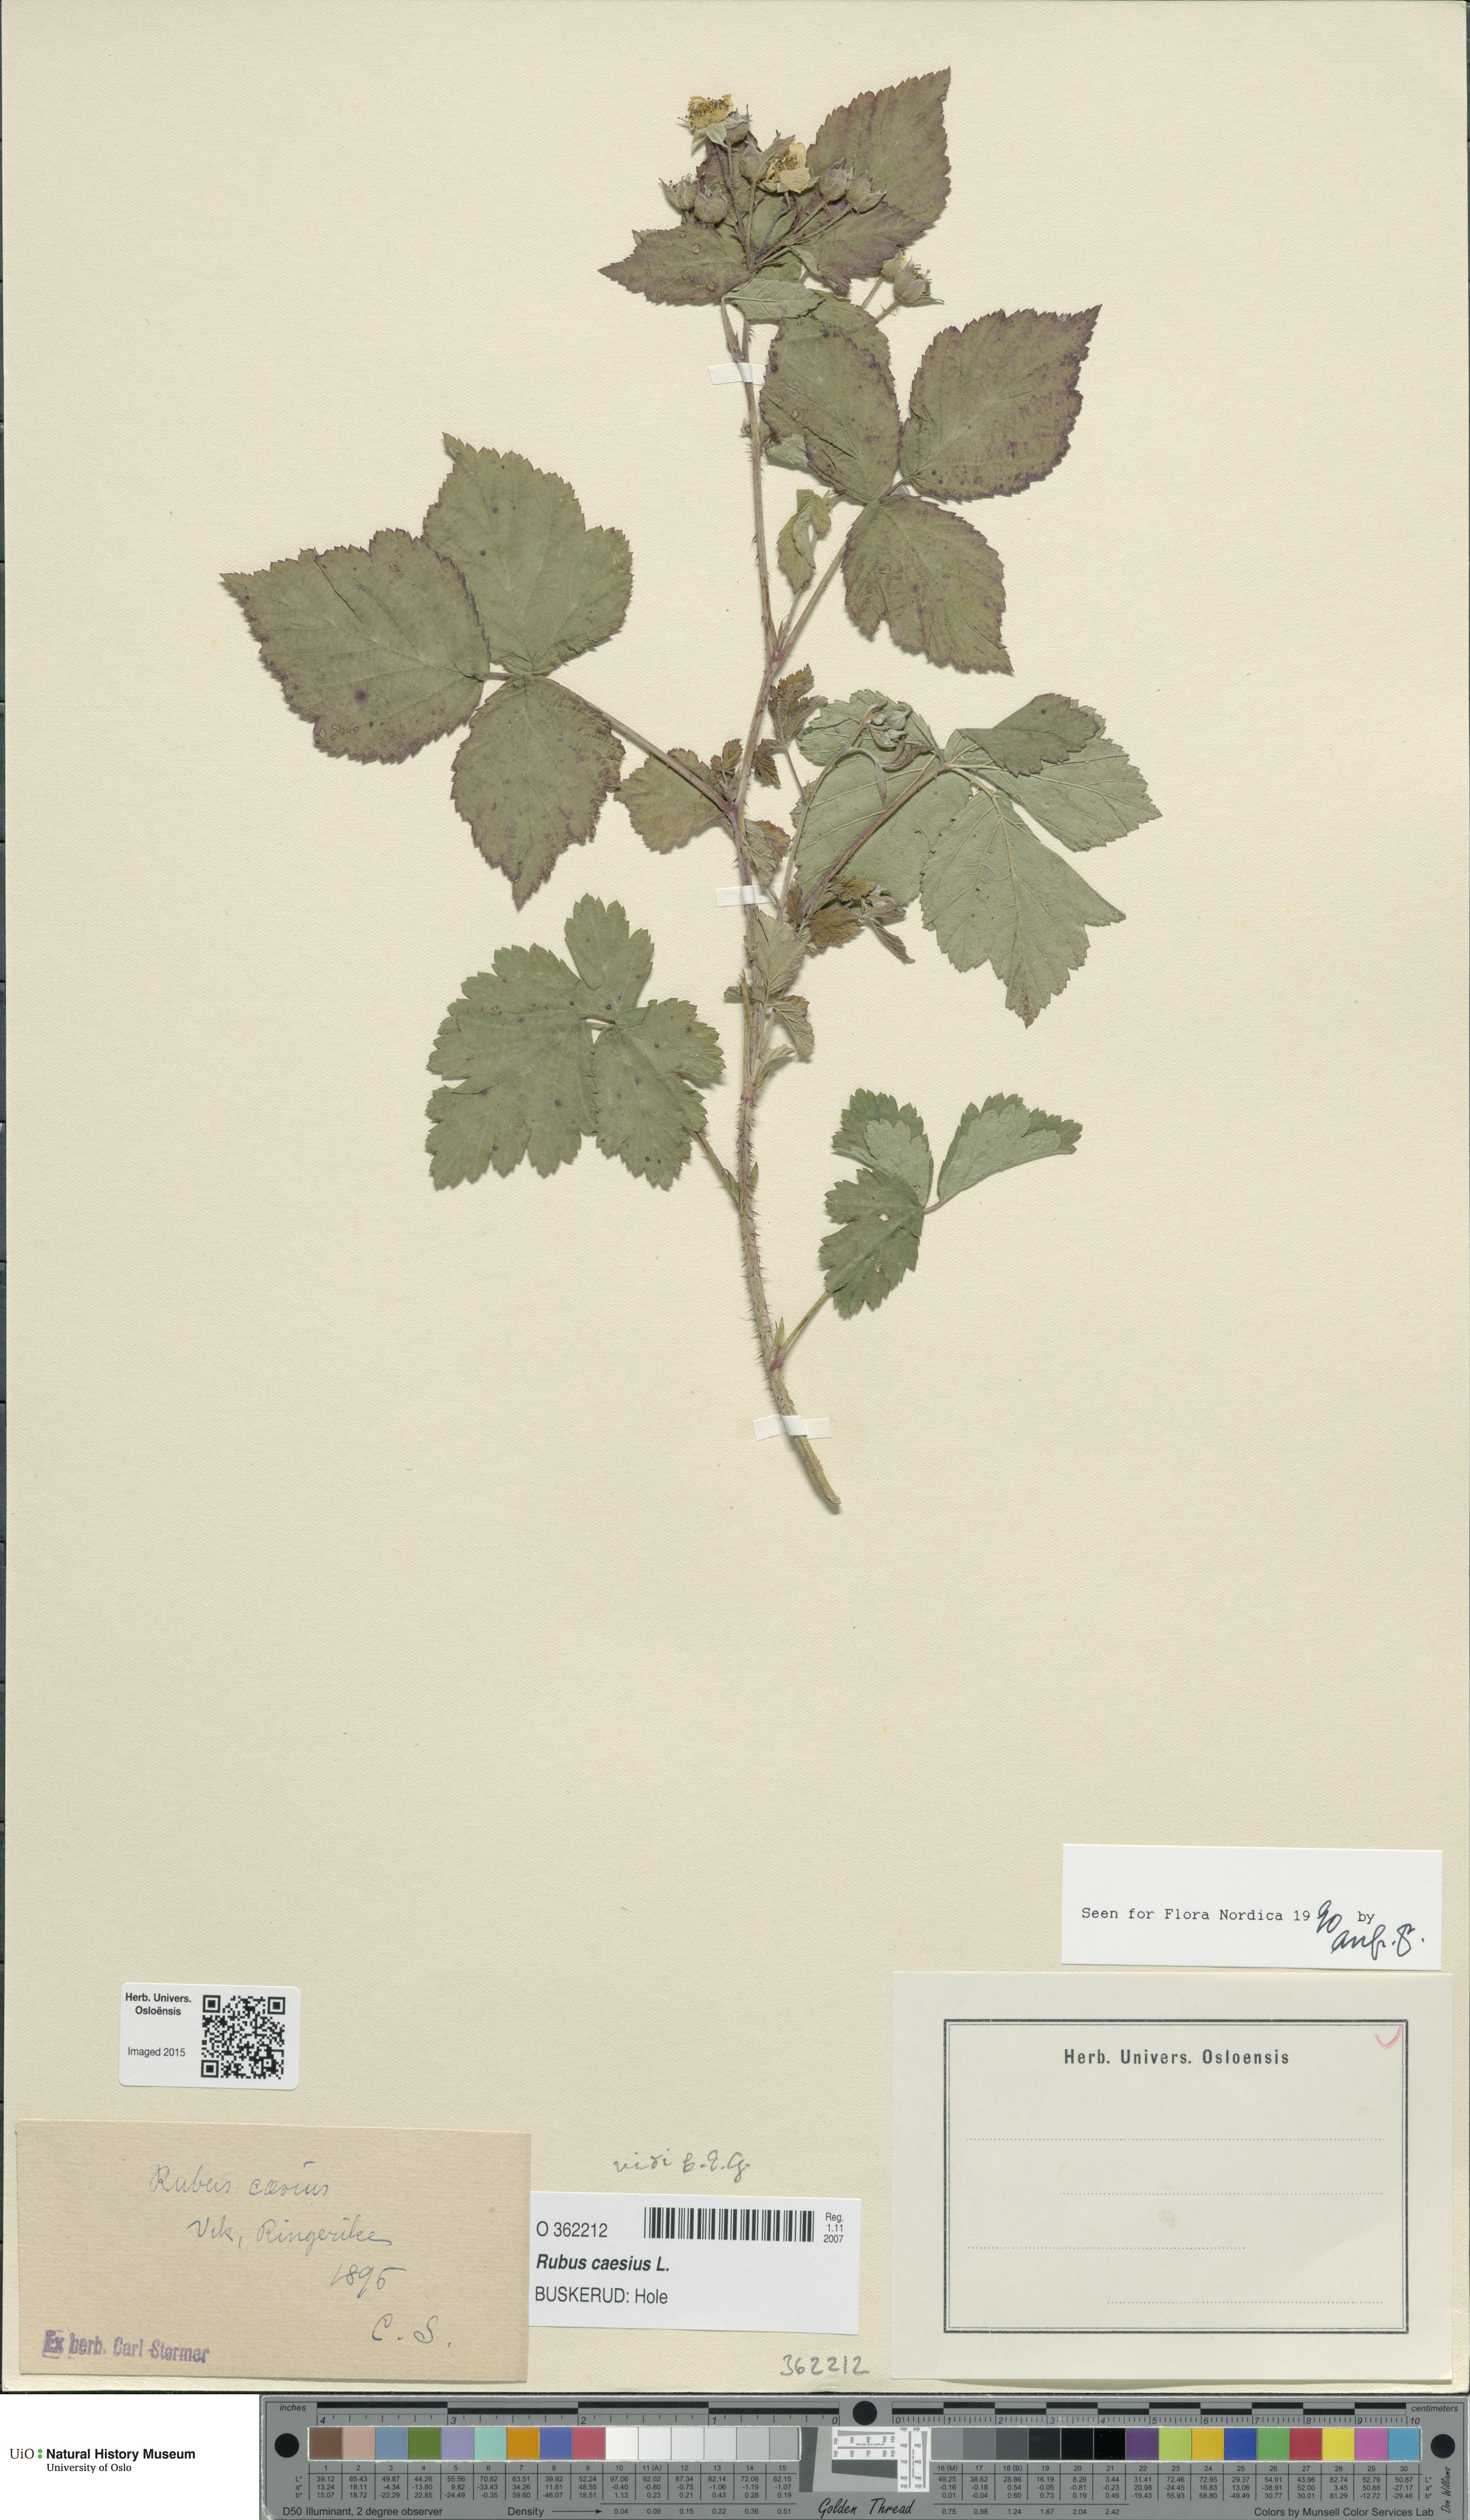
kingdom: Plantae
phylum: Tracheophyta
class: Magnoliopsida
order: Rosales
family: Rosaceae
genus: Rubus
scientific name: Rubus caesius
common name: Dewberry
